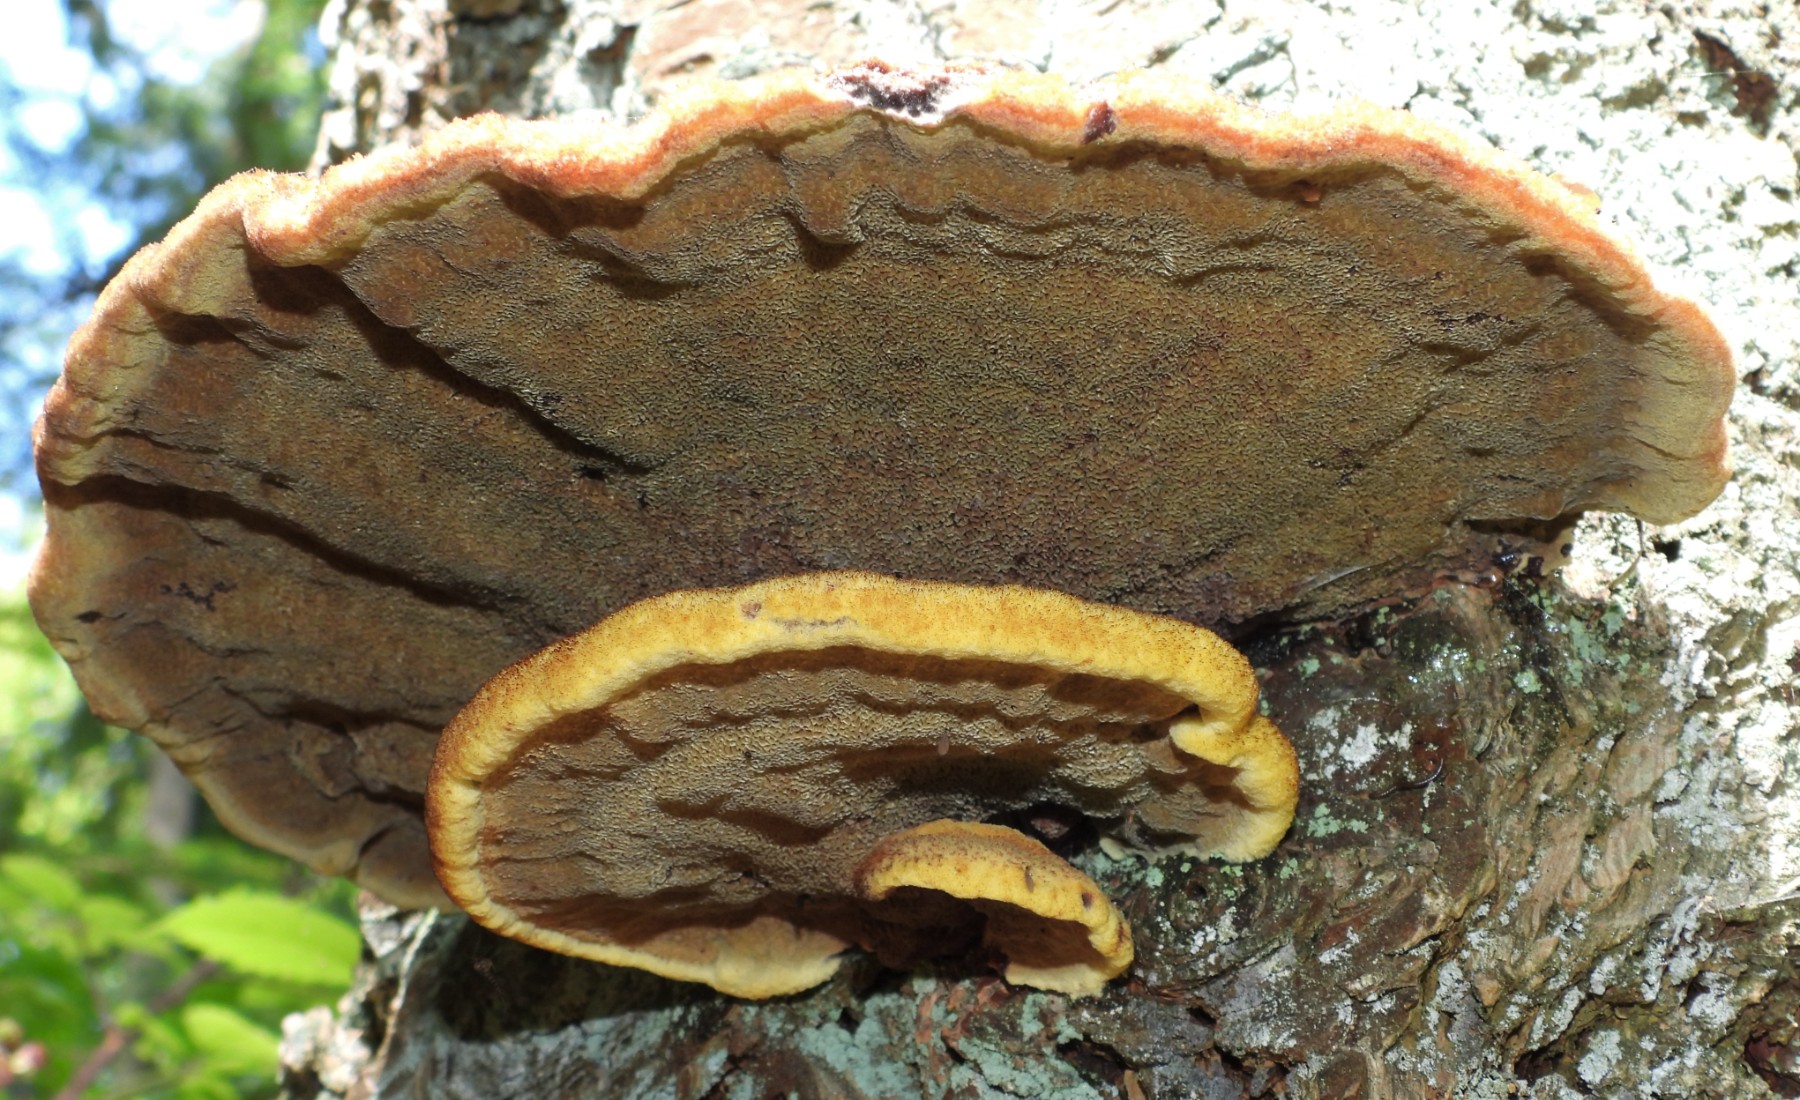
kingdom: Fungi
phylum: Basidiomycota
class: Agaricomycetes
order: Polyporales
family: Ischnodermataceae
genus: Ischnoderma
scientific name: Ischnoderma benzoinum
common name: gran-tjæreporesvamp
